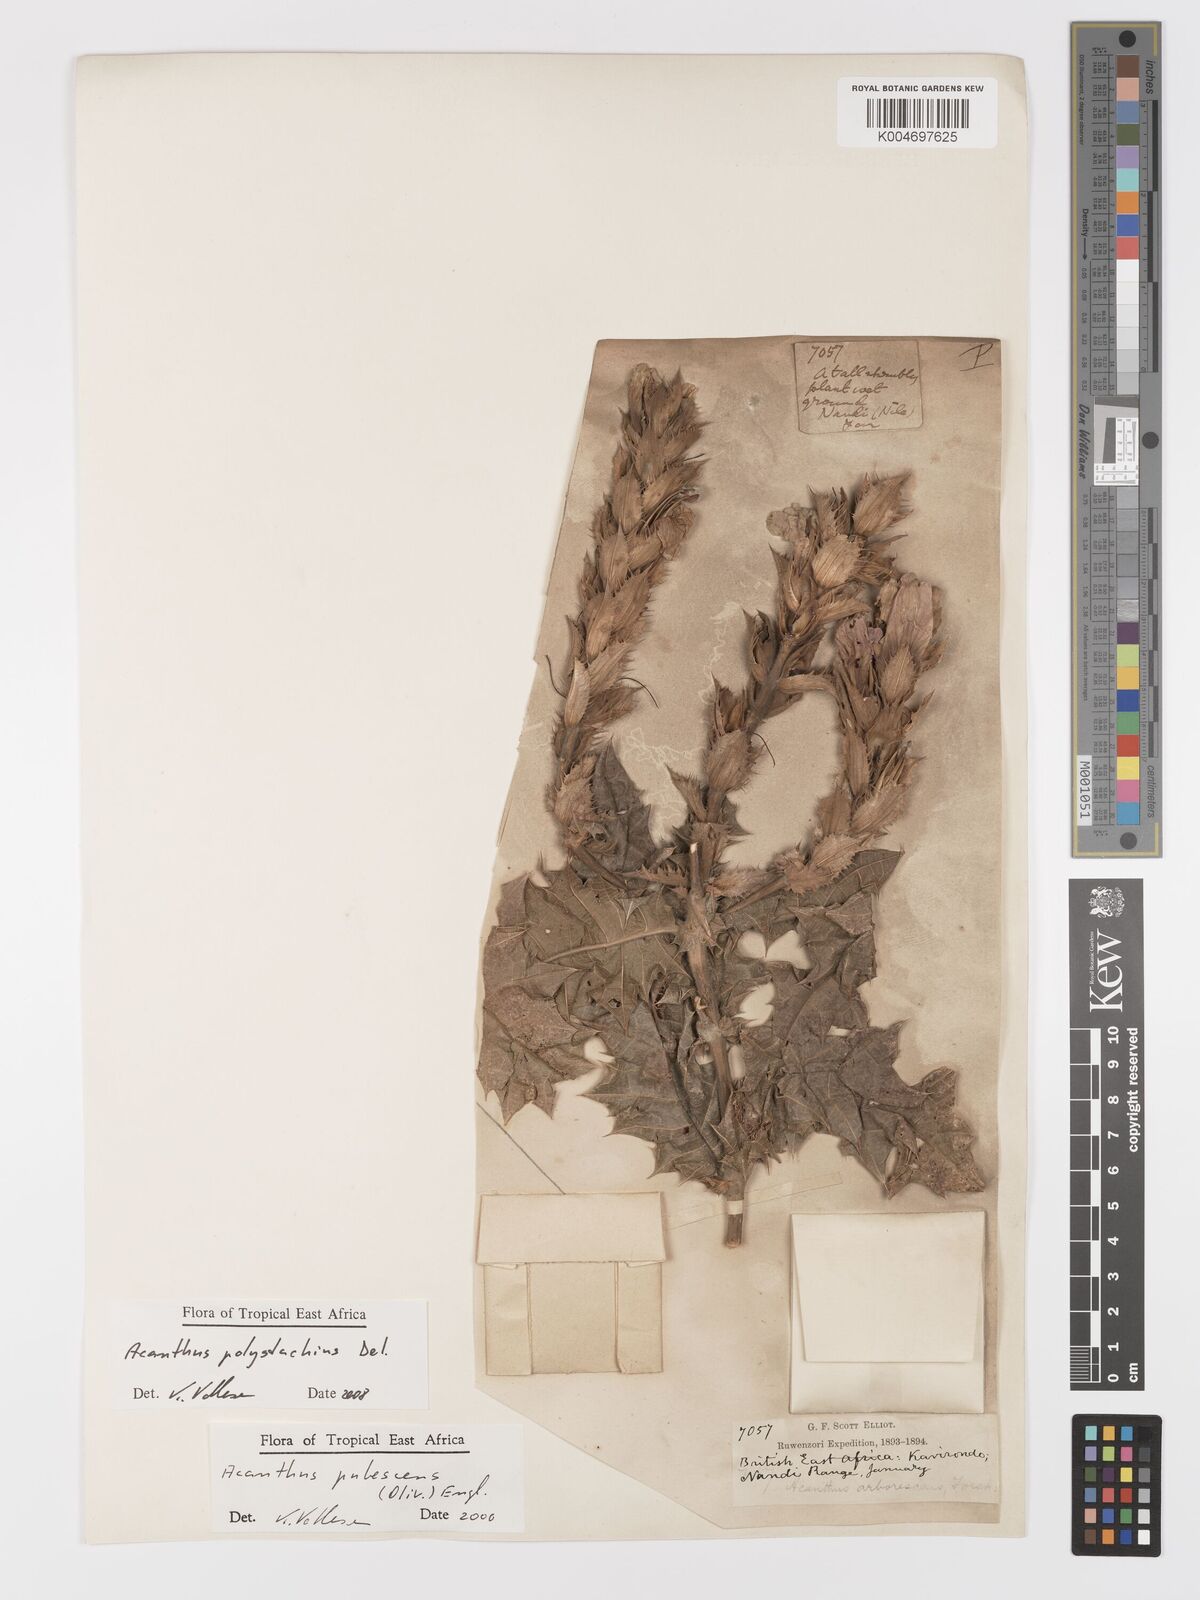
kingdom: Plantae
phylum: Tracheophyta
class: Magnoliopsida
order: Lamiales
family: Acanthaceae
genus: Acanthus
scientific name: Acanthus polystachyus
